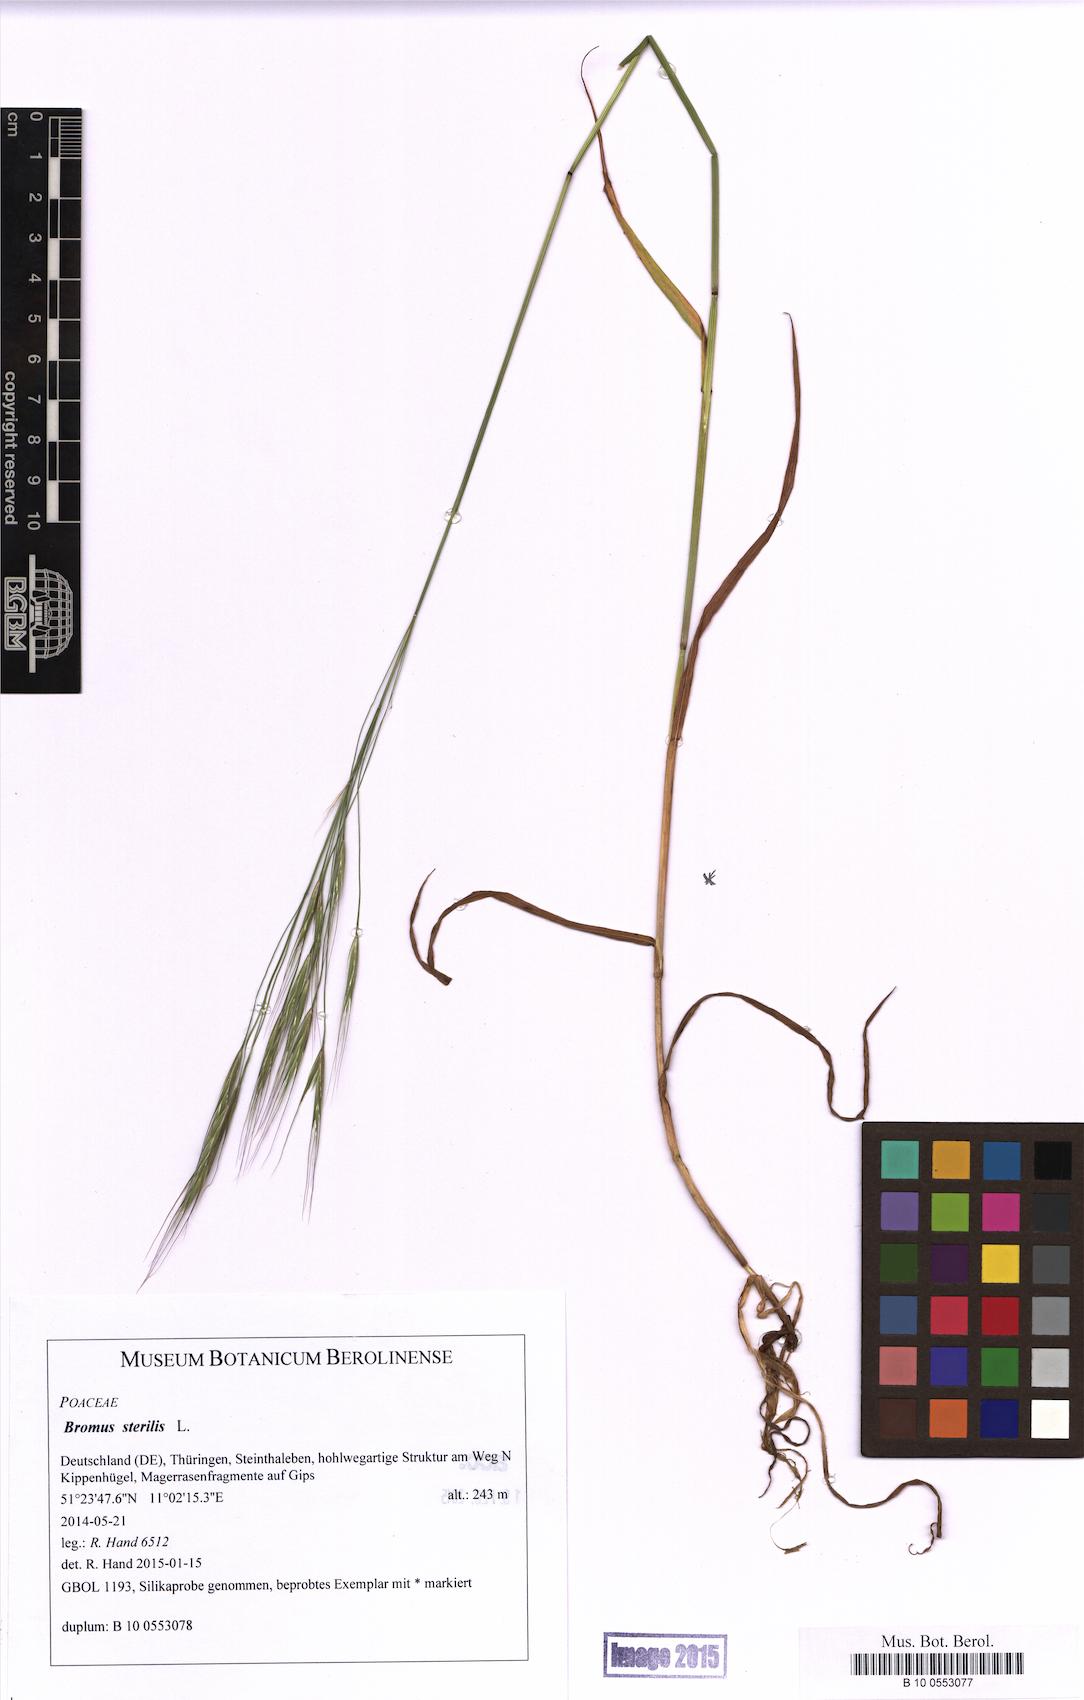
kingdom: Plantae
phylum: Tracheophyta
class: Liliopsida
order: Poales
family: Poaceae
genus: Bromus
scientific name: Bromus sterilis
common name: Poverty brome
